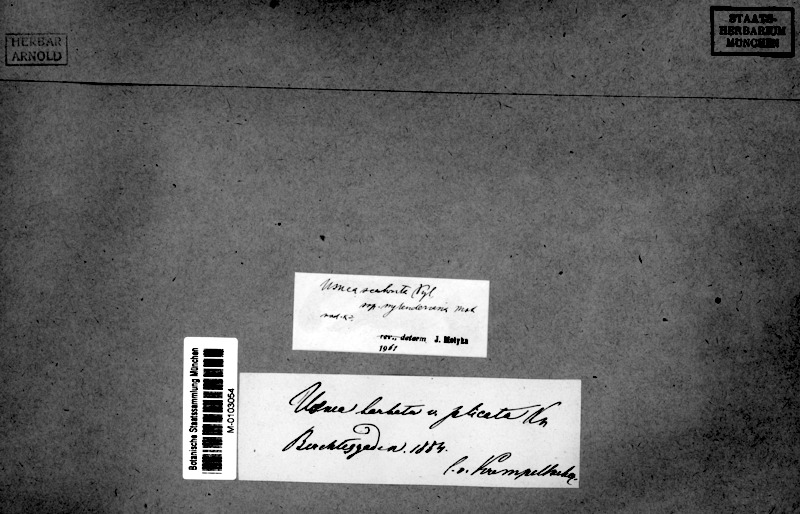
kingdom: Fungi
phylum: Ascomycota
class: Lecanoromycetes
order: Lecanorales
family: Parmeliaceae
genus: Usnea
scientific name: Usnea barbata
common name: Old man's beard lichen
